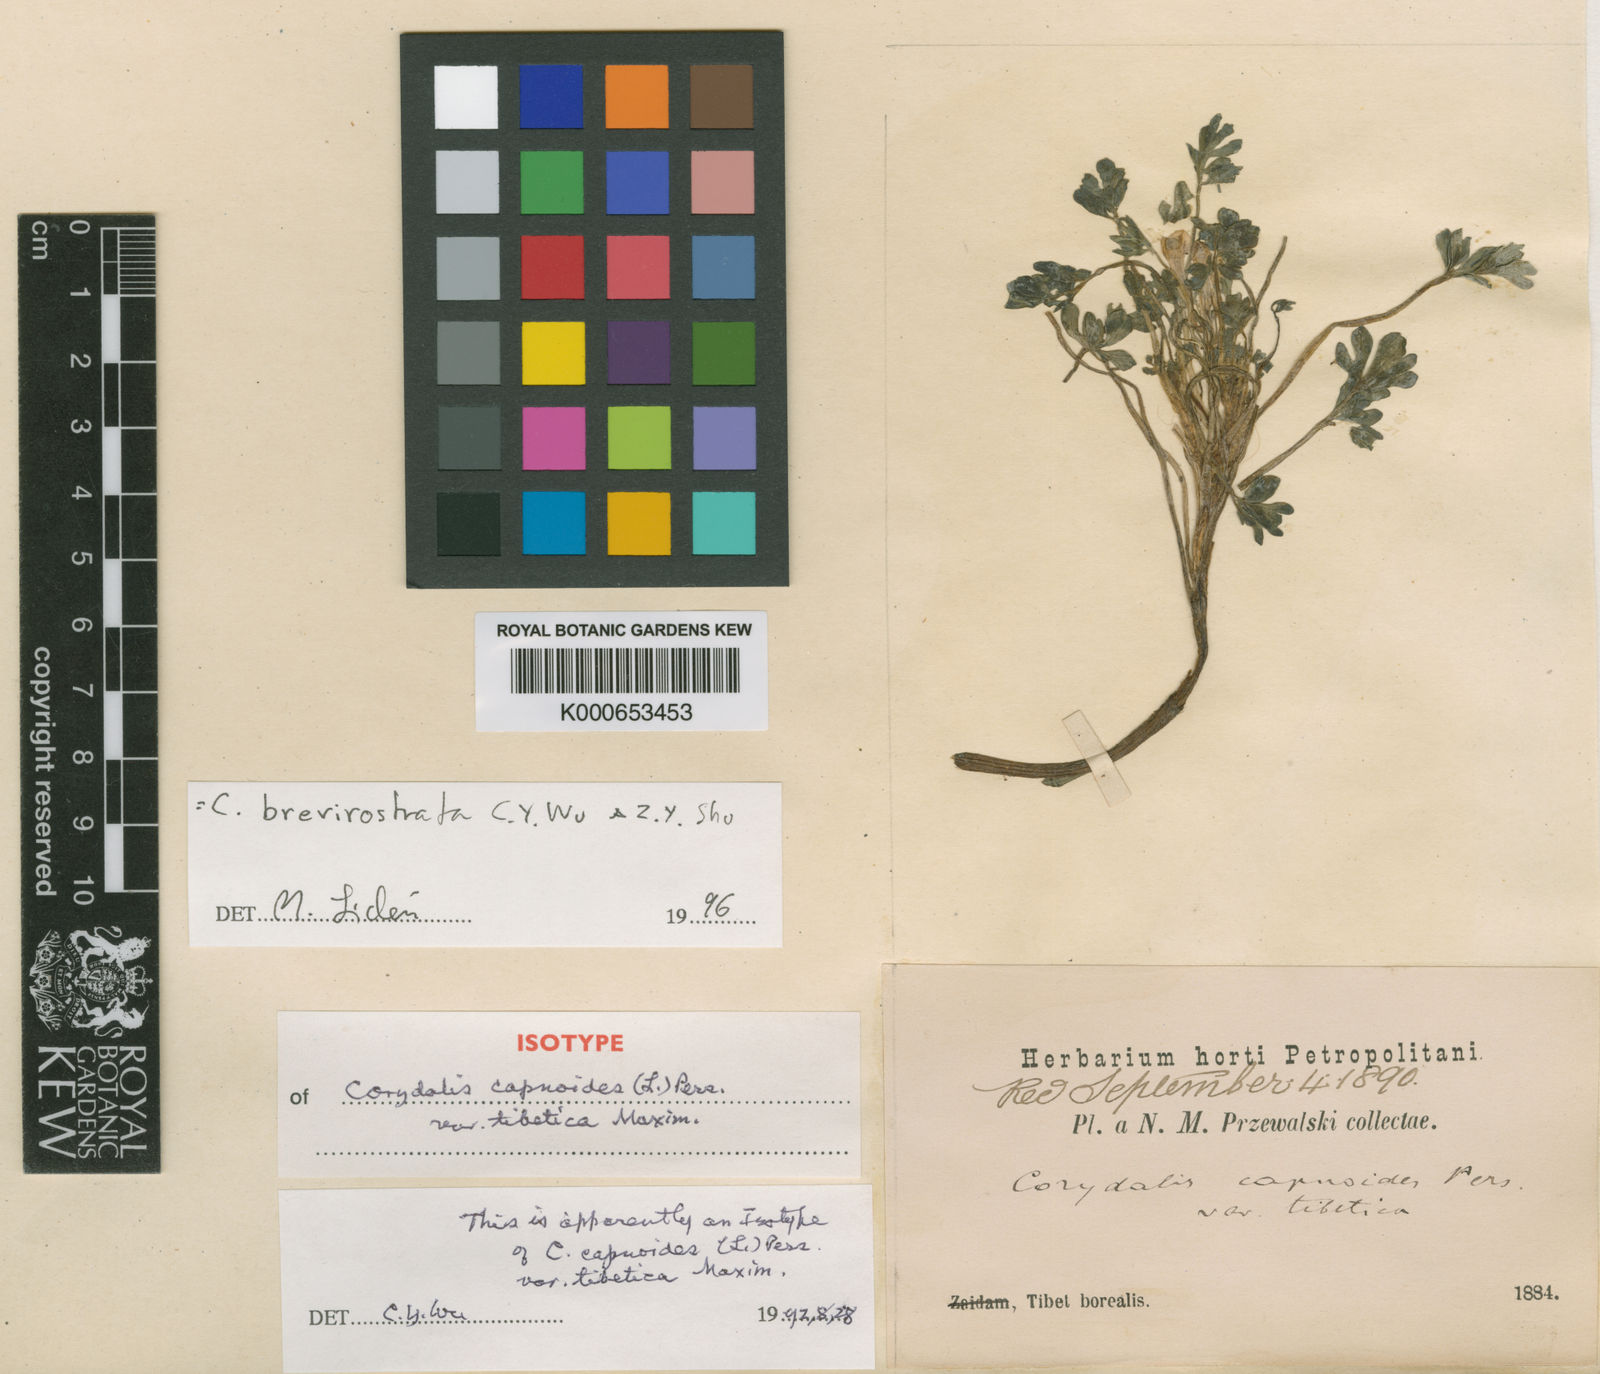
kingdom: Plantae
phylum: Tracheophyta
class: Magnoliopsida
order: Ranunculales
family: Papaveraceae
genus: Corydalis
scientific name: Corydalis brevirostrata
